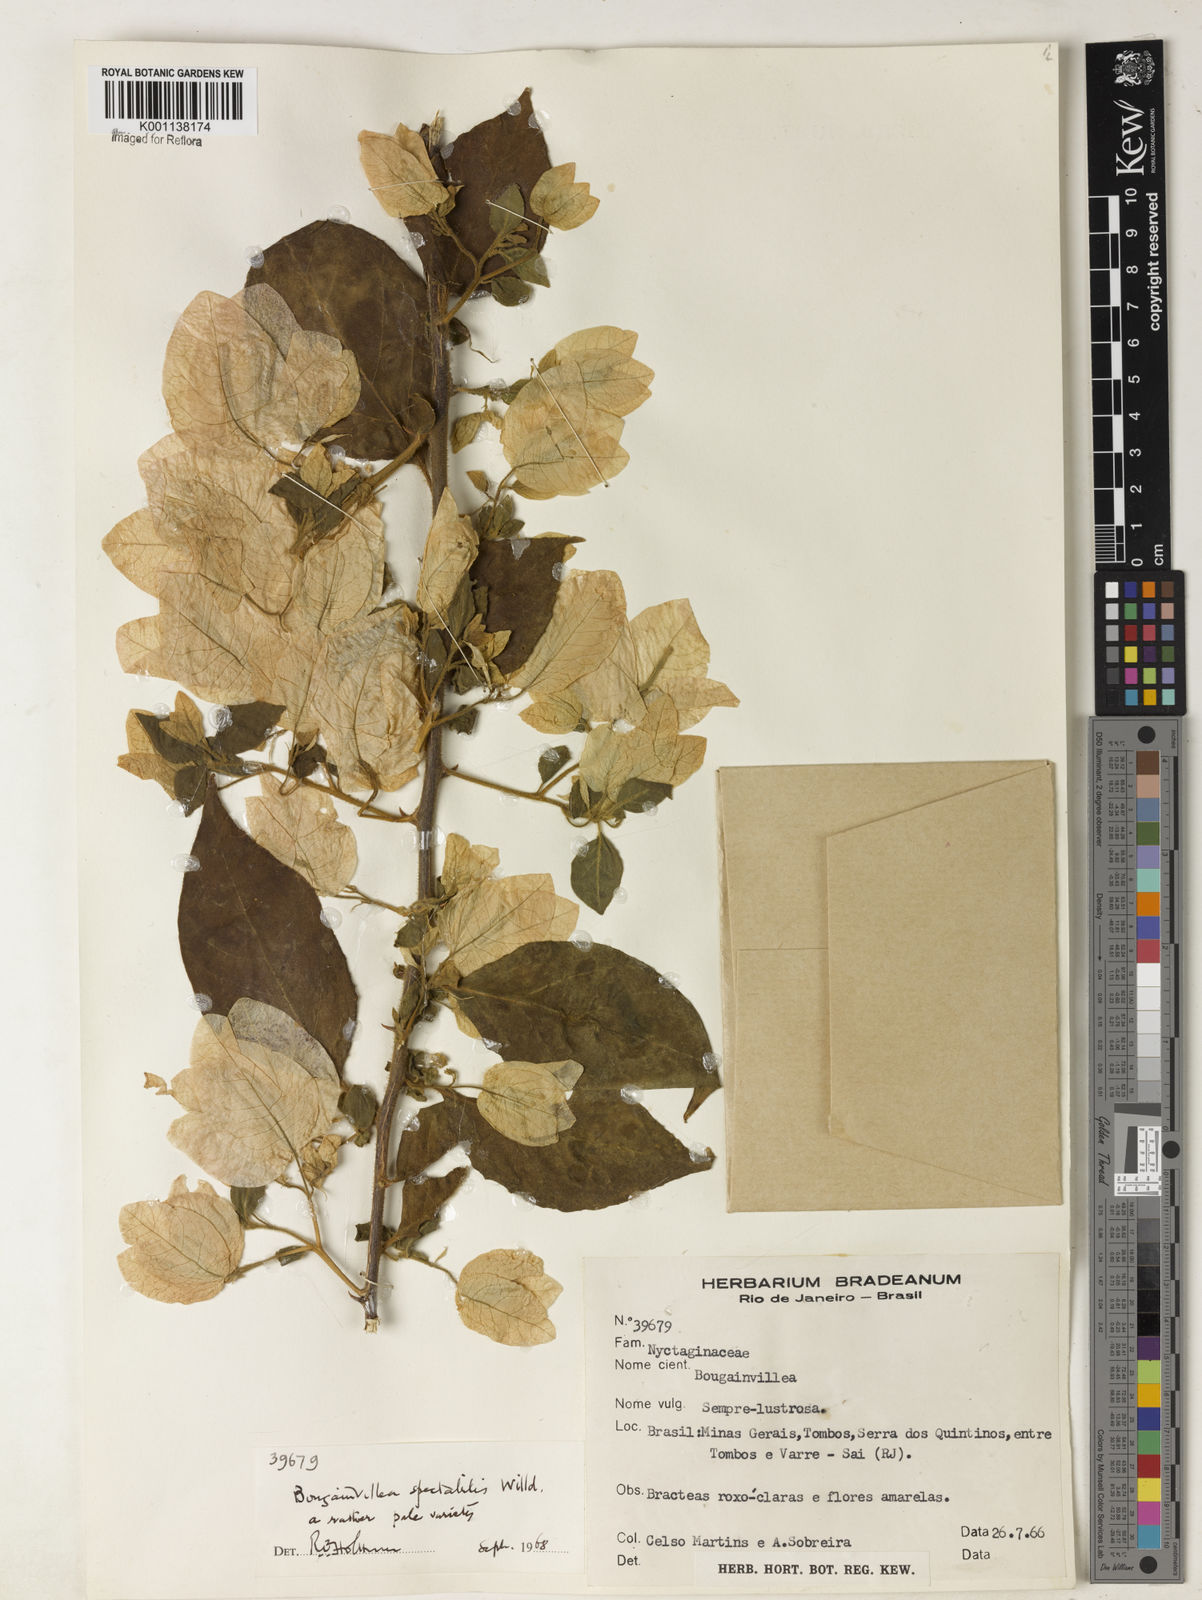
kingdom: Plantae
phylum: Tracheophyta
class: Magnoliopsida
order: Caryophyllales
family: Nyctaginaceae
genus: Bougainvillea
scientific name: Bougainvillea spectabilis
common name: Great bougainvillea
